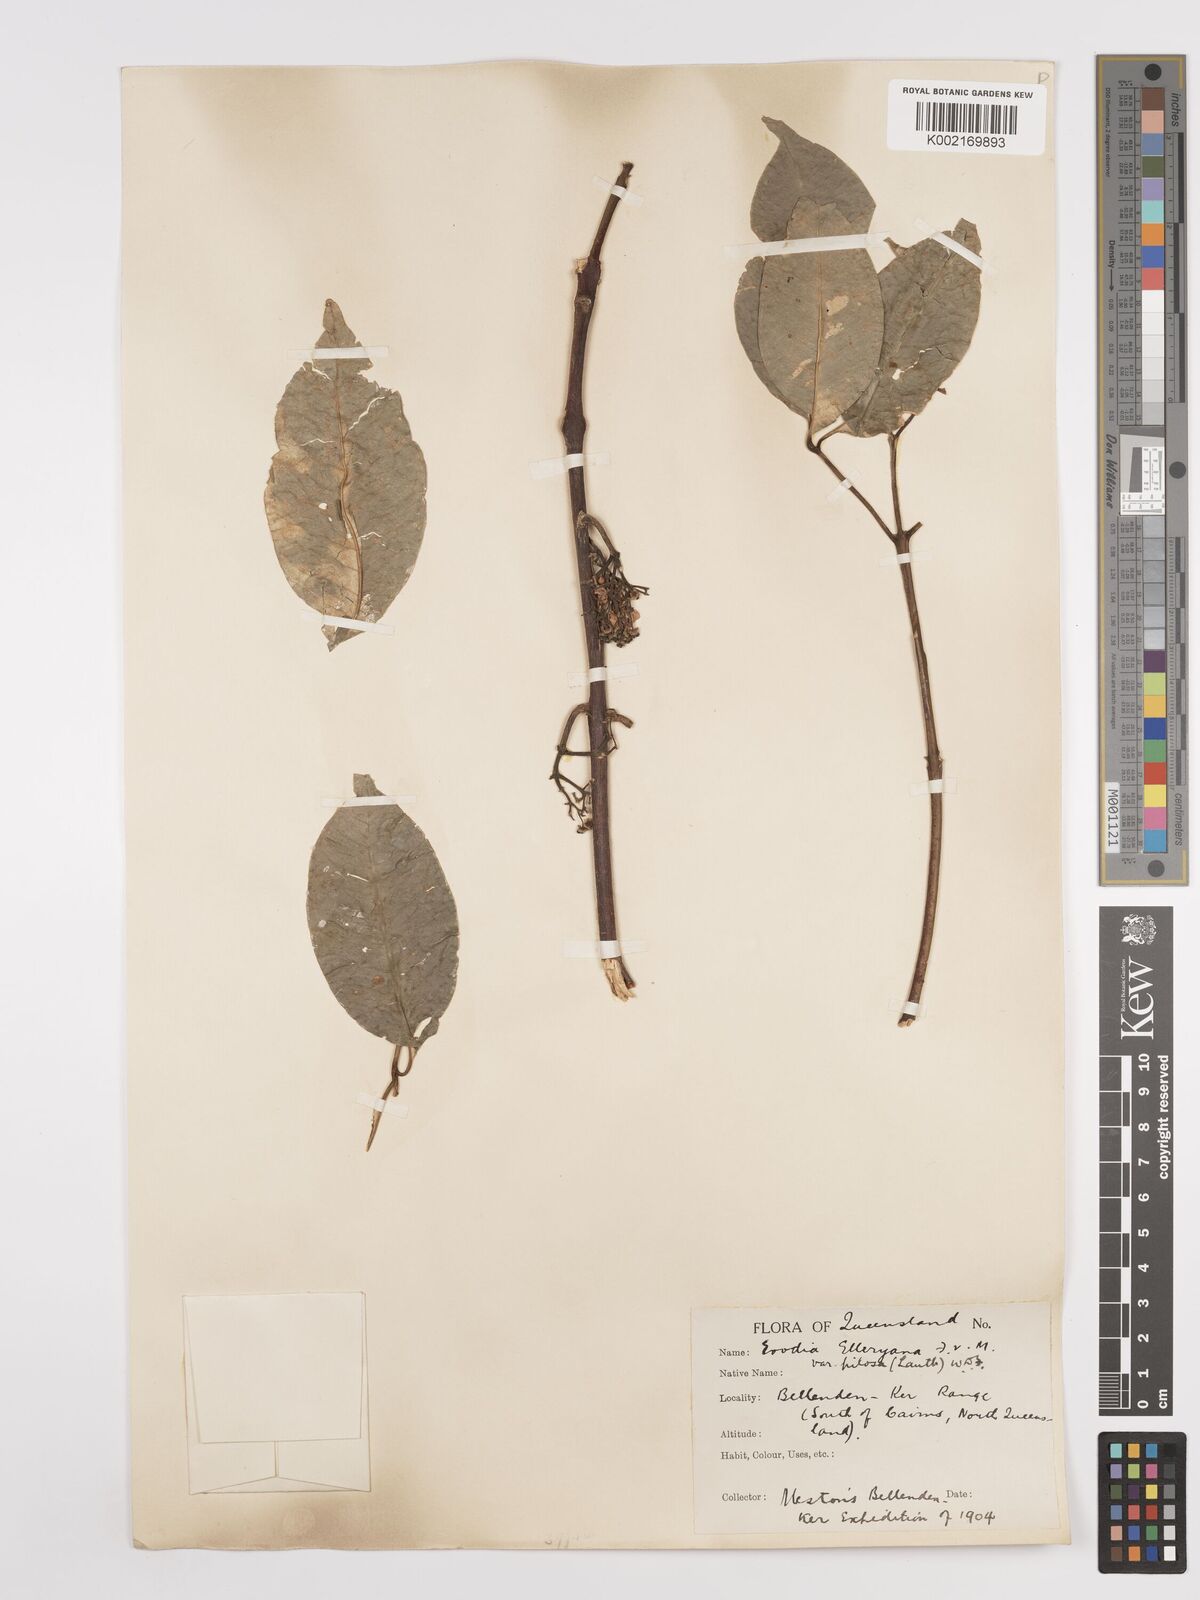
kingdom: Plantae
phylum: Tracheophyta
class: Magnoliopsida
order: Sapindales
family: Rutaceae
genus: Melicope
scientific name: Melicope accedens
